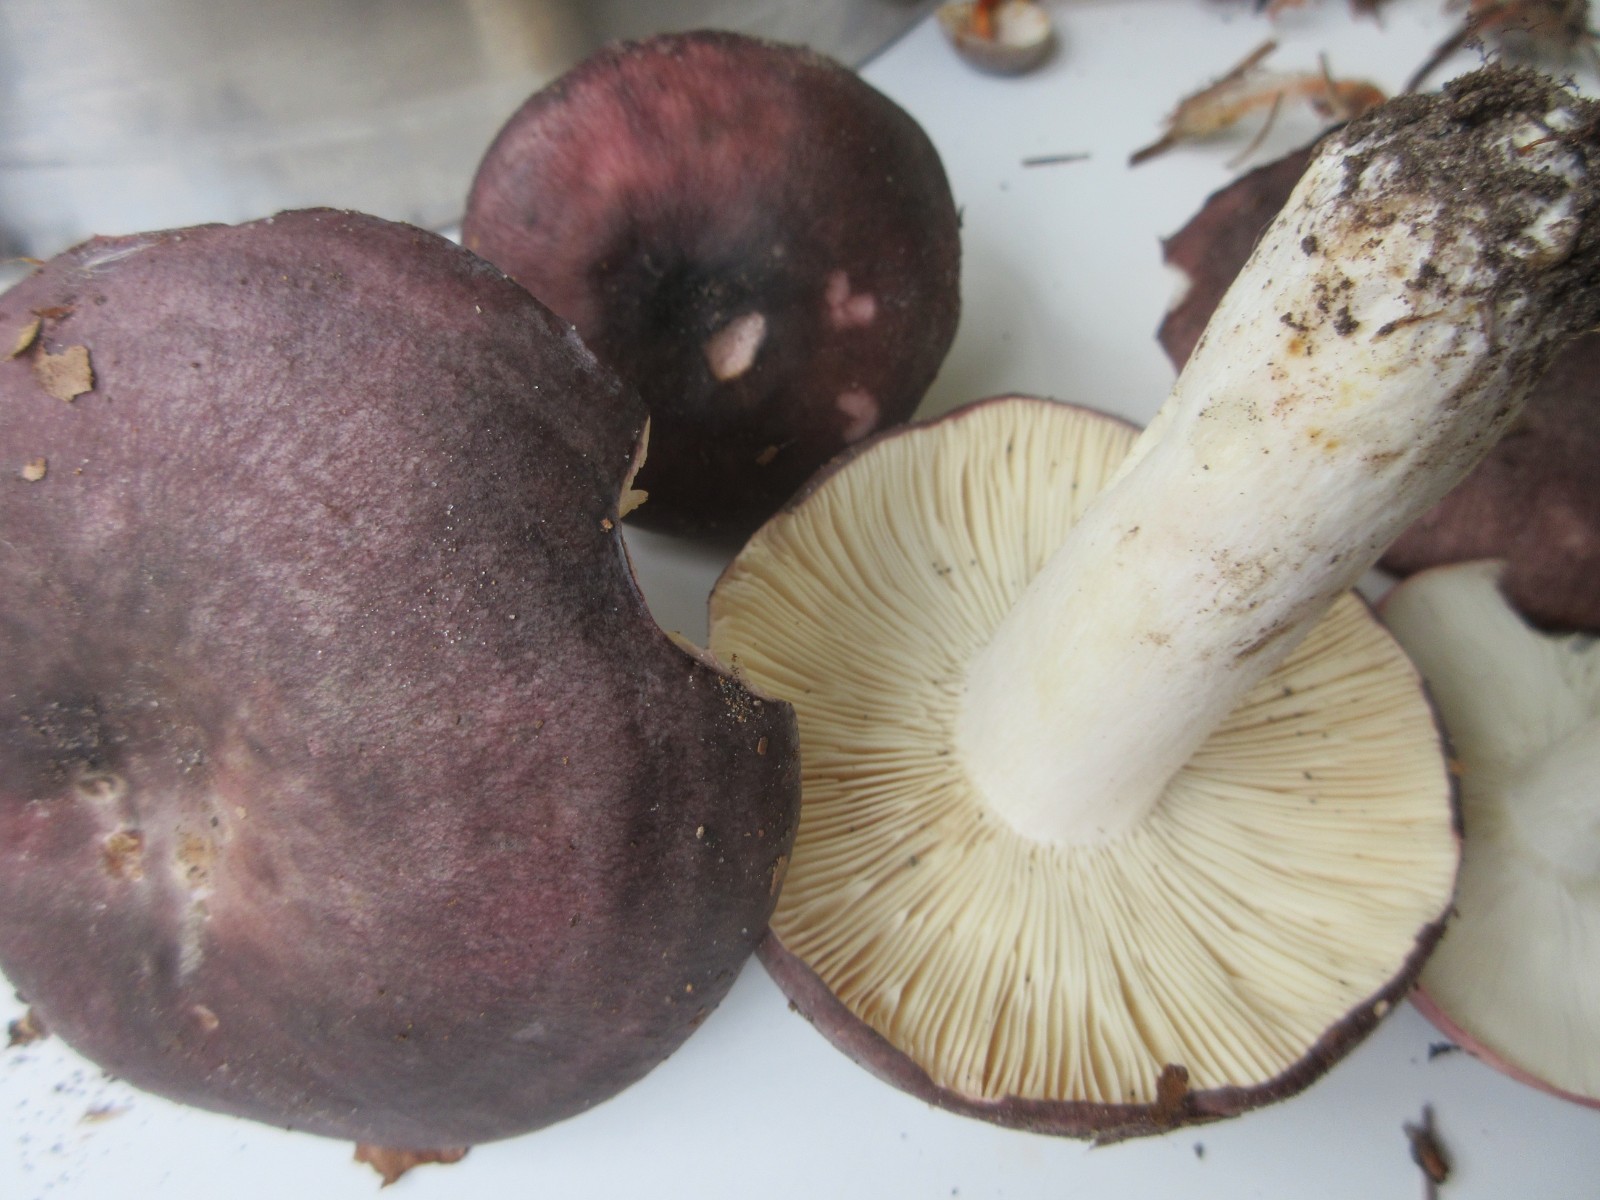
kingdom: Fungi
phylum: Basidiomycota
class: Agaricomycetes
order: Russulales
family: Russulaceae
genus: Russula
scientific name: Russula cyanoxantha
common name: broget skørhat
